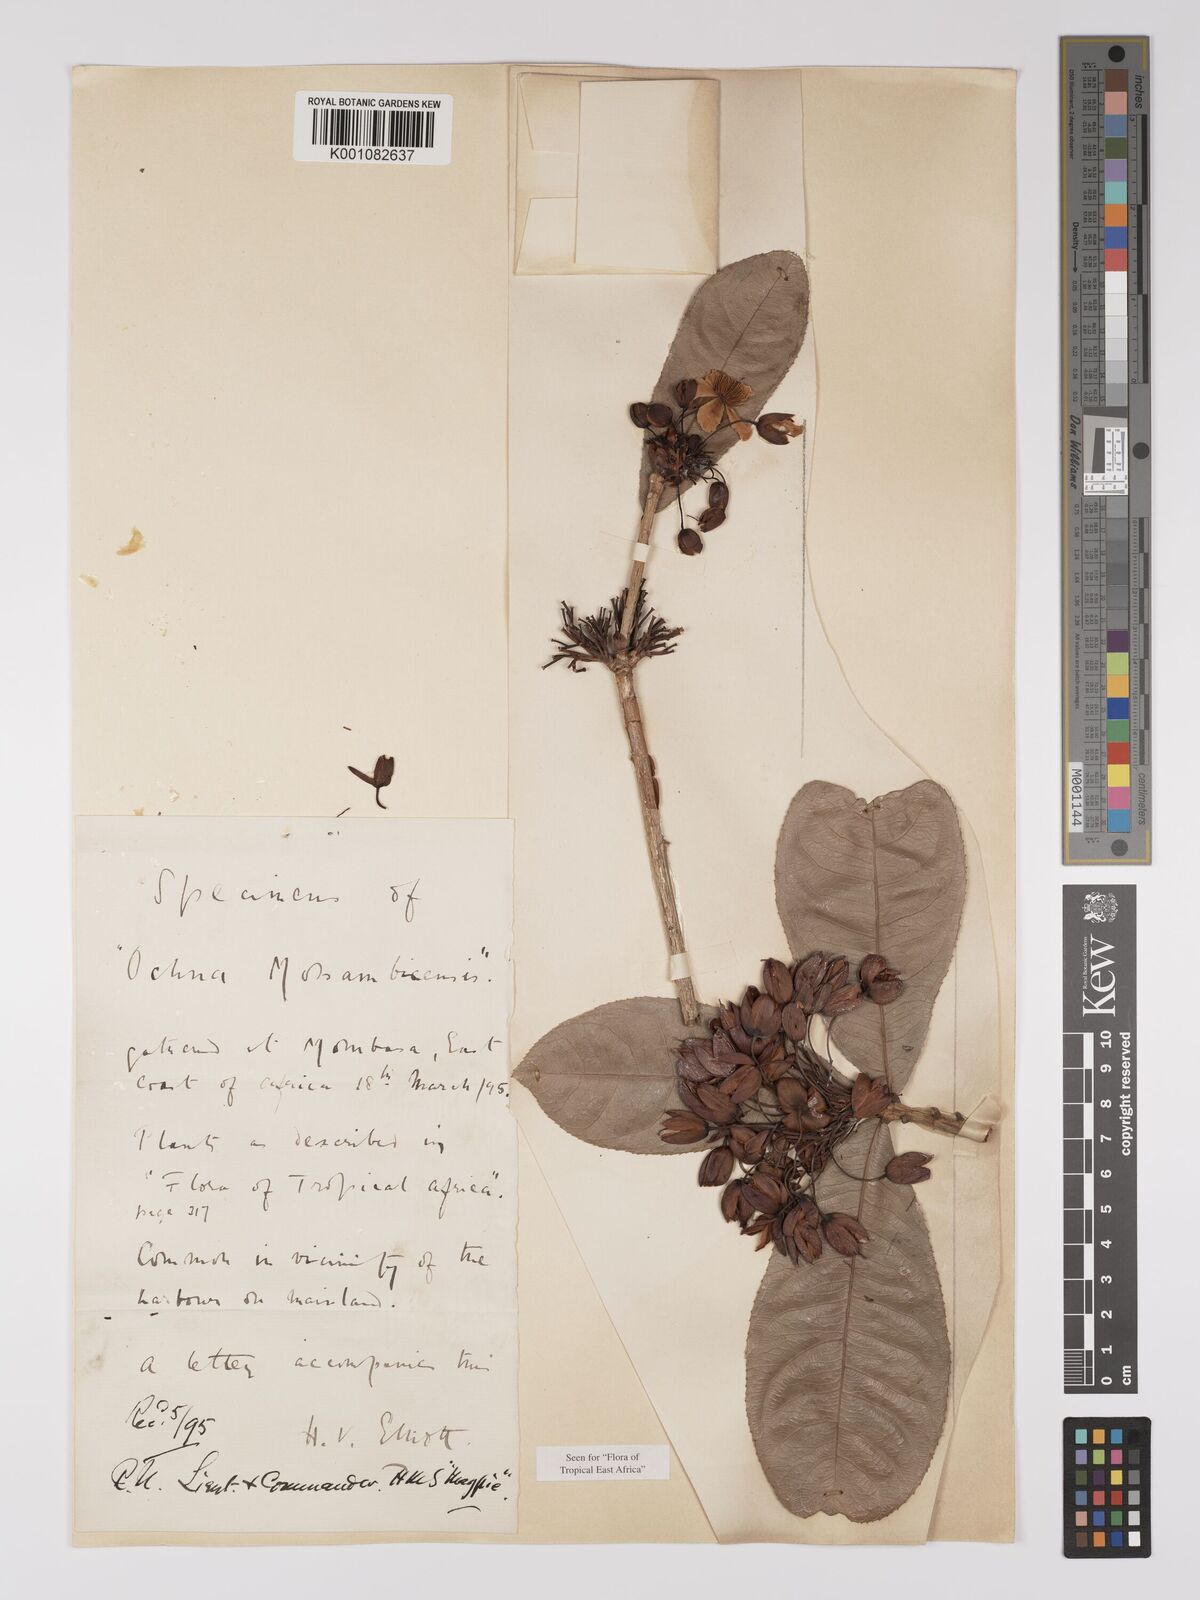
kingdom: Plantae
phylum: Tracheophyta
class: Magnoliopsida
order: Malpighiales
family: Ochnaceae
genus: Ochna
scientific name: Ochna atropurpurea
